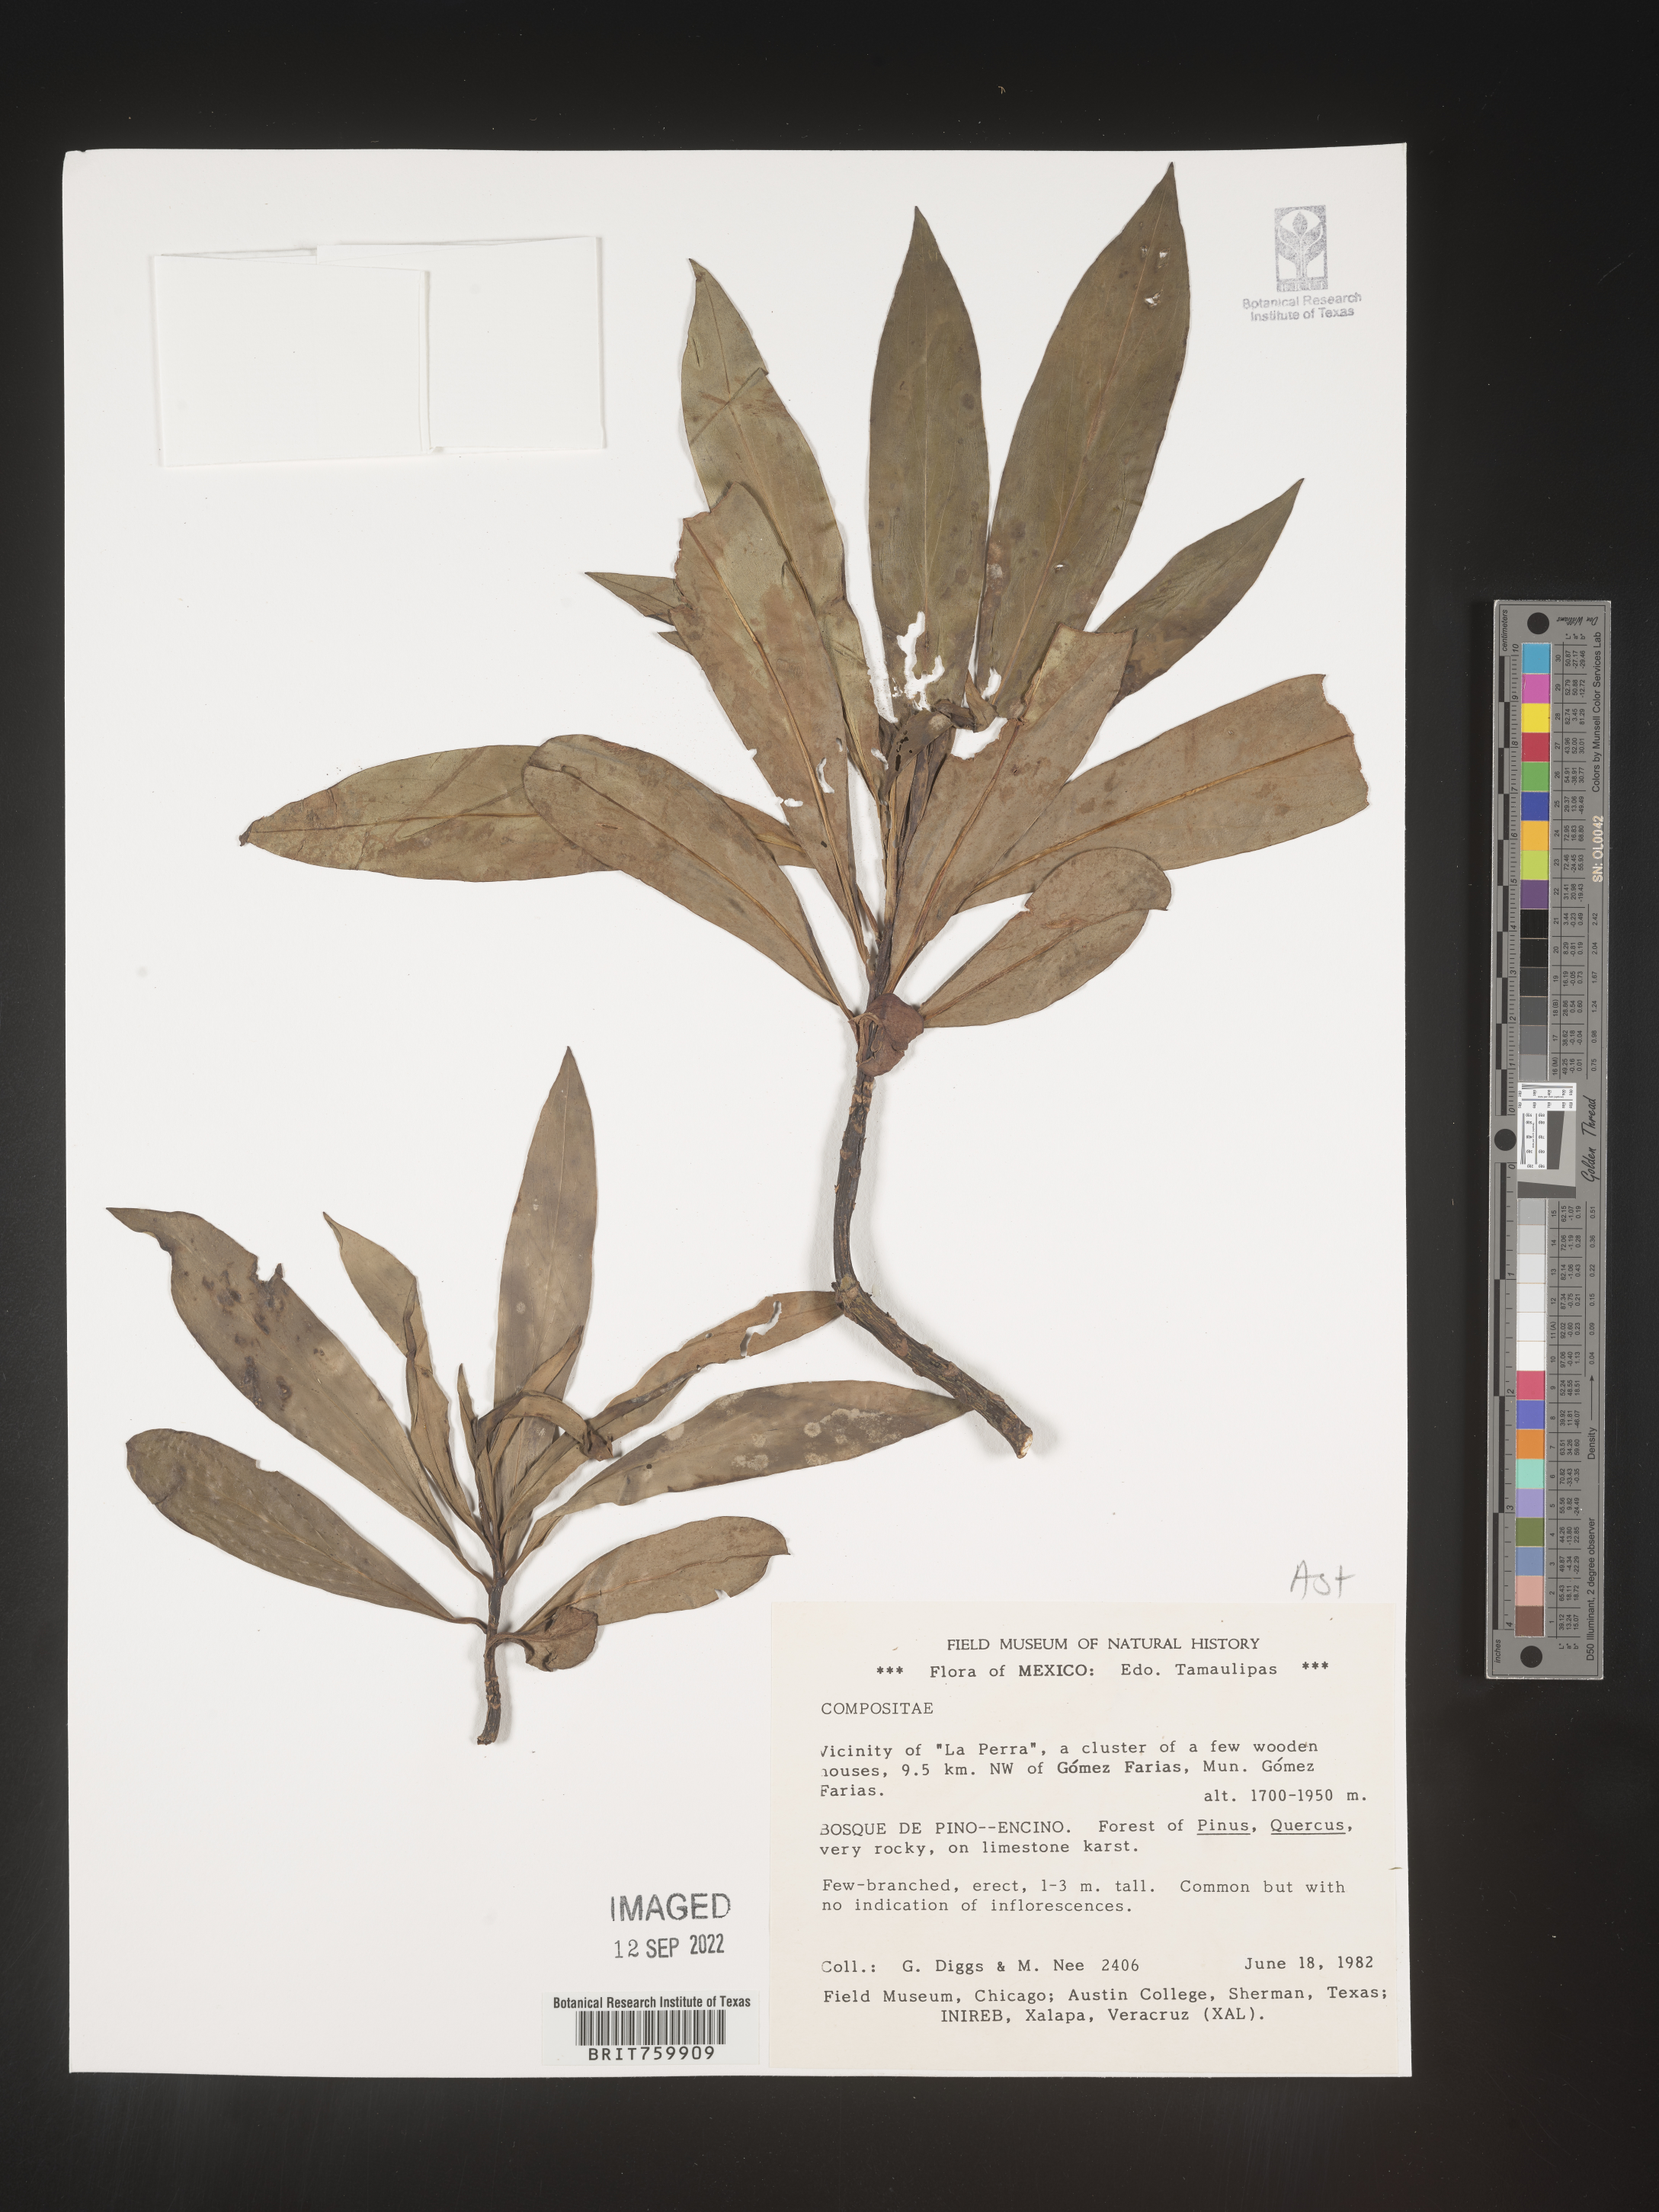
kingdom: Plantae
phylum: Tracheophyta
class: Magnoliopsida
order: Asterales
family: Asteraceae
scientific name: Asteraceae
